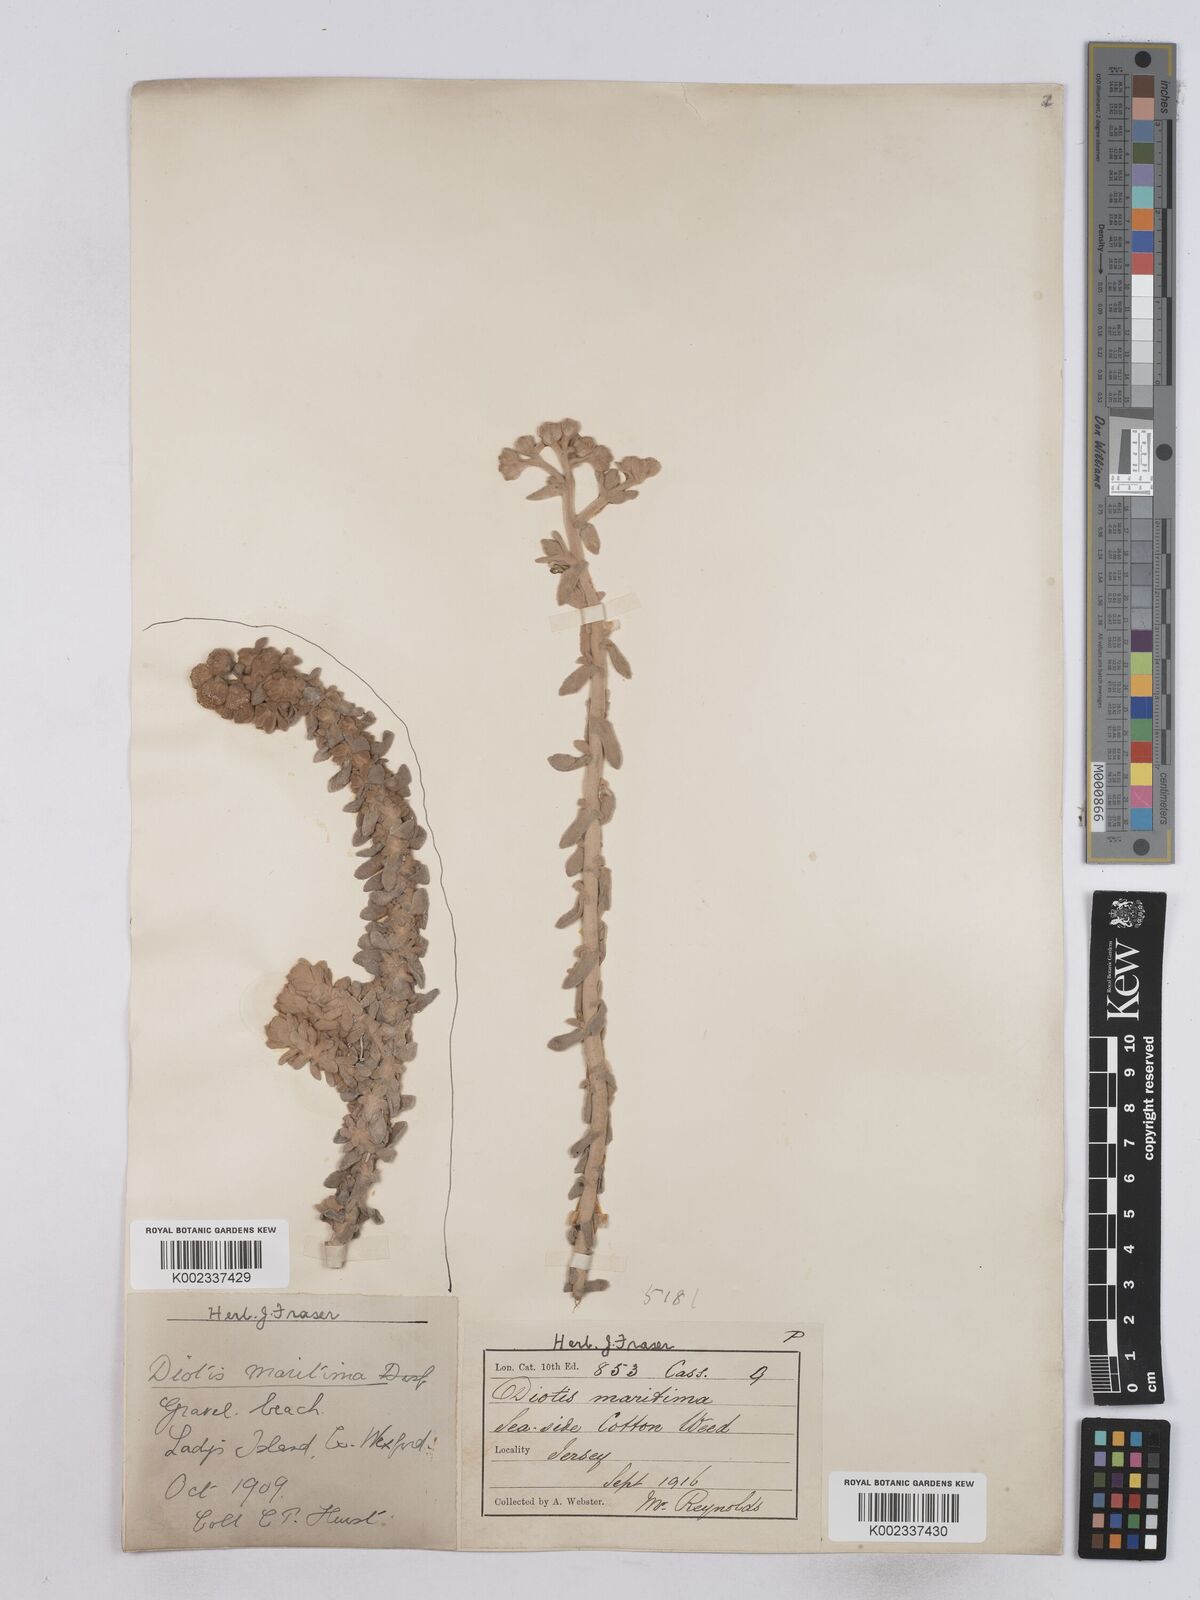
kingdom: Plantae
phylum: Tracheophyta
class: Magnoliopsida
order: Asterales
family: Asteraceae
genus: Achillea
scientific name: Achillea maritima
